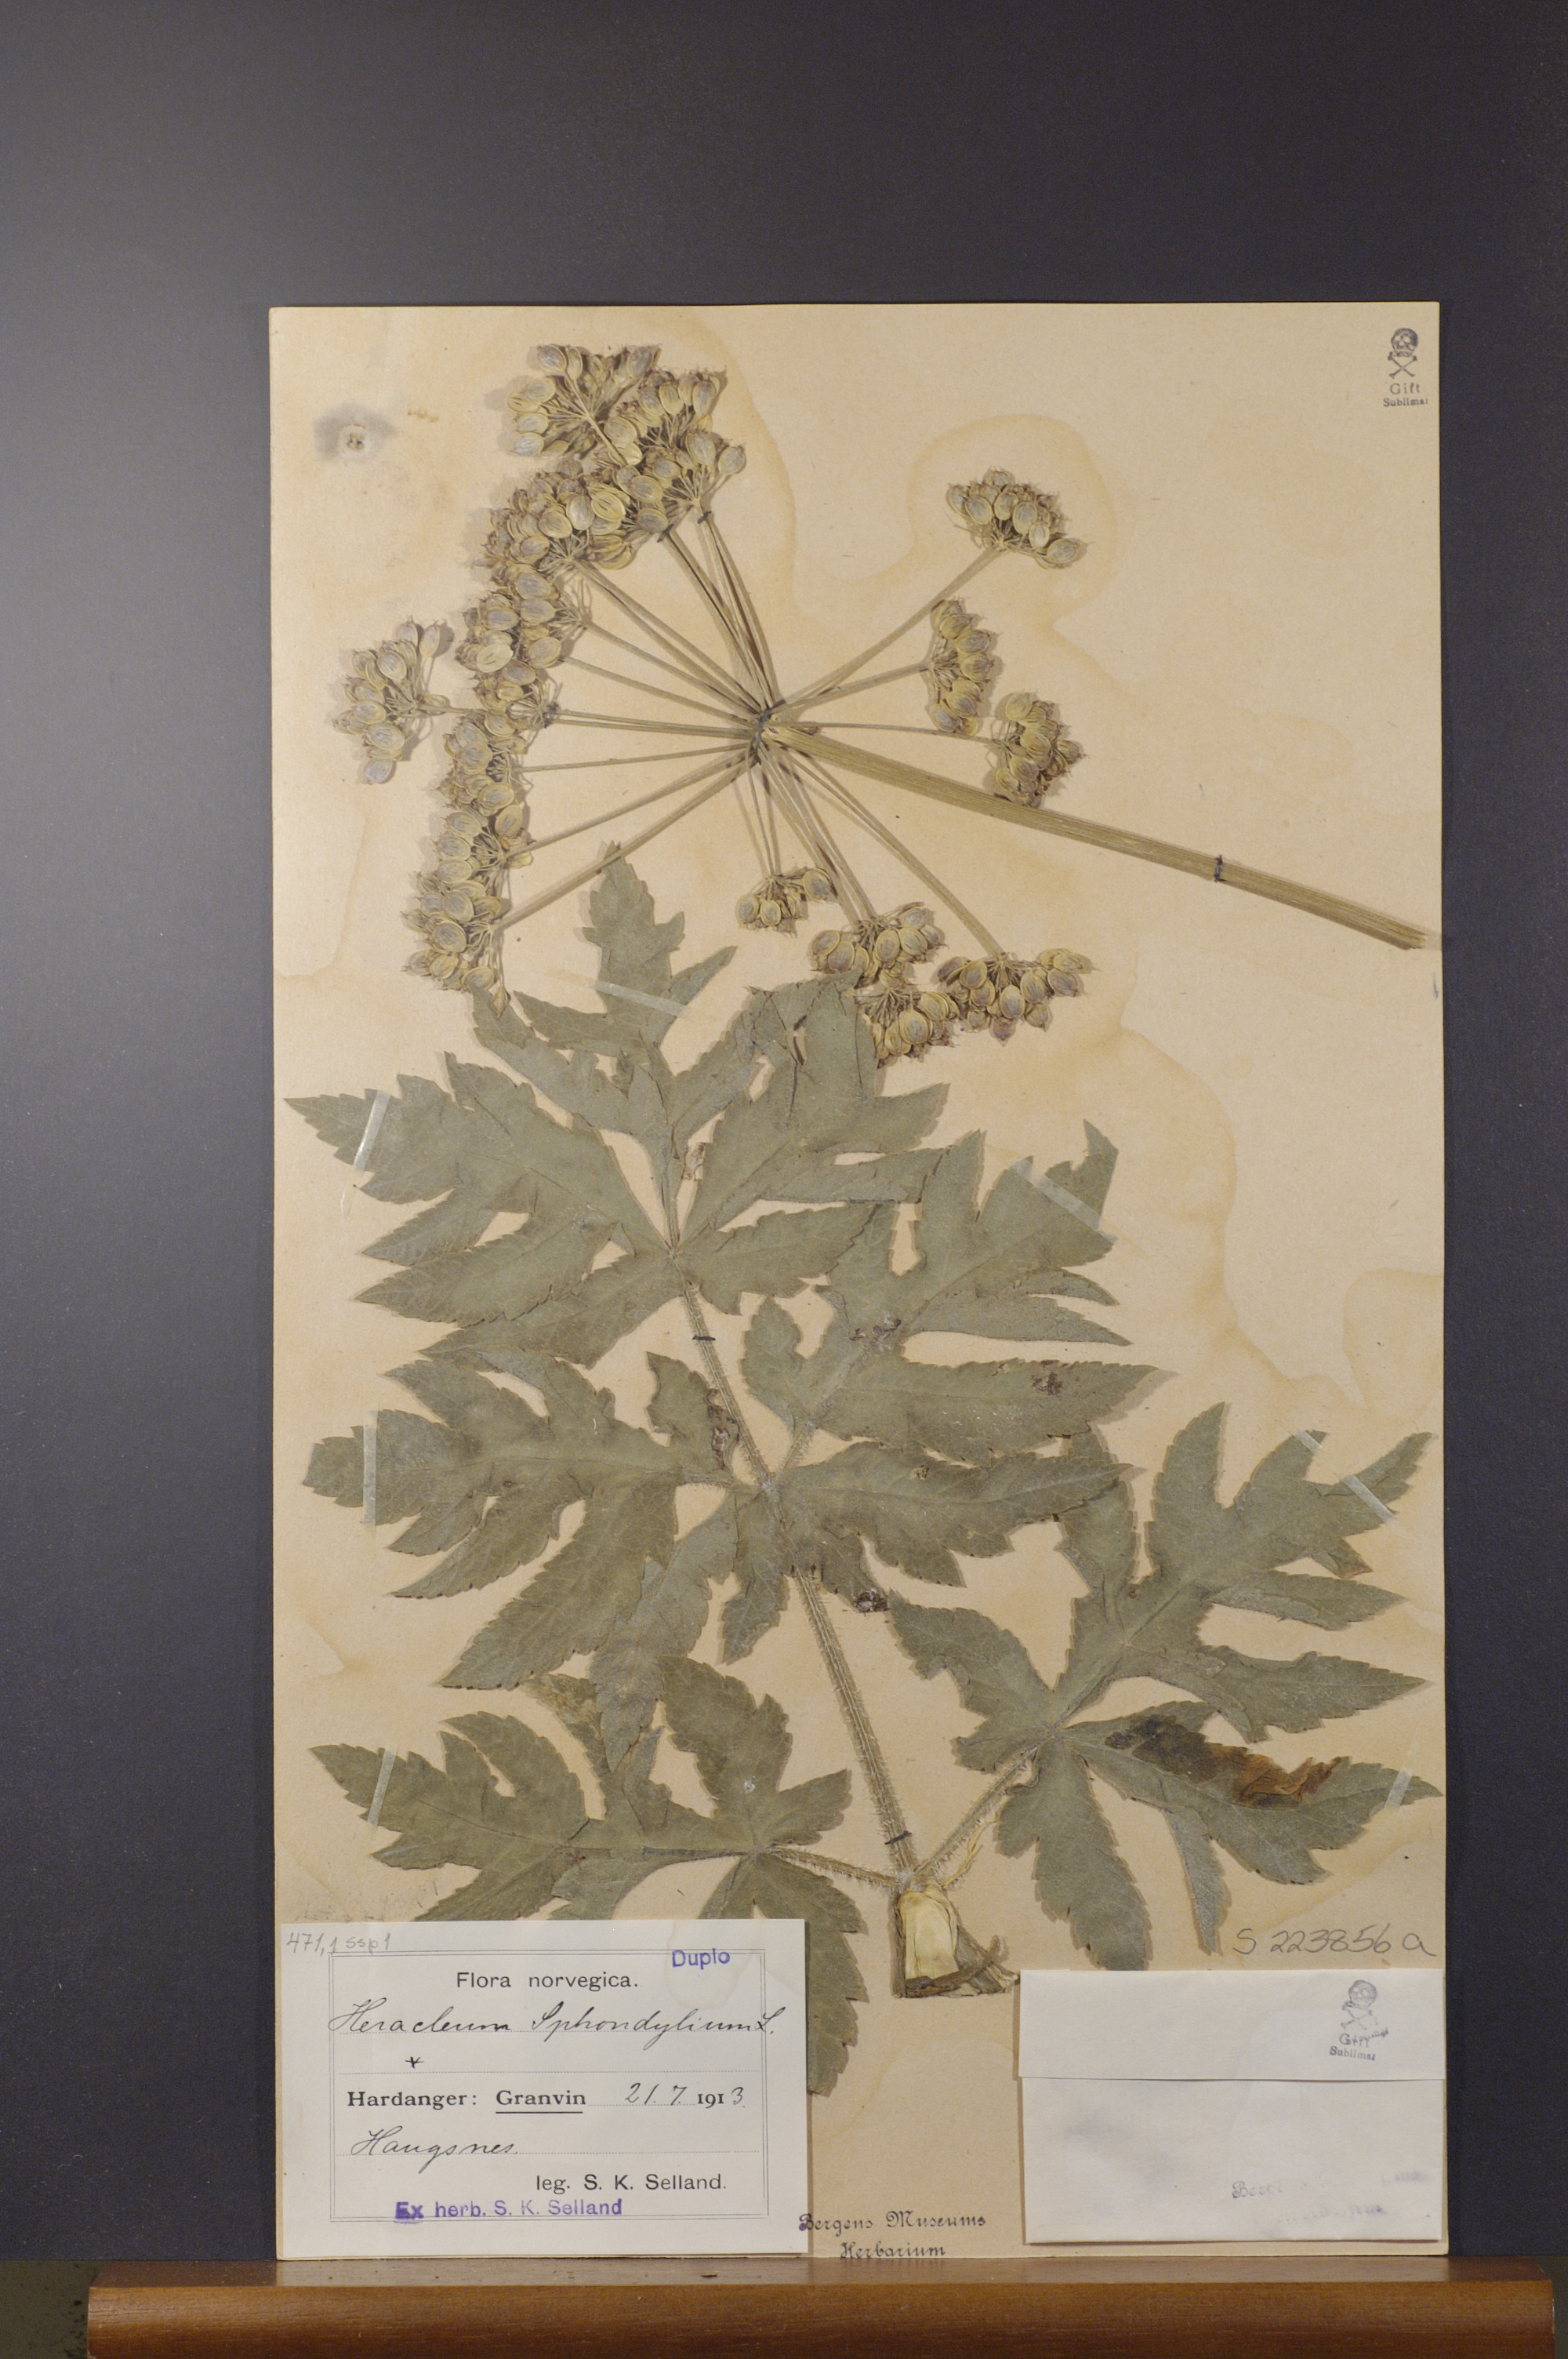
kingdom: Plantae
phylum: Tracheophyta
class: Magnoliopsida
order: Apiales
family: Apiaceae
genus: Heracleum
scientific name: Heracleum sphondylium
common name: Hogweed
